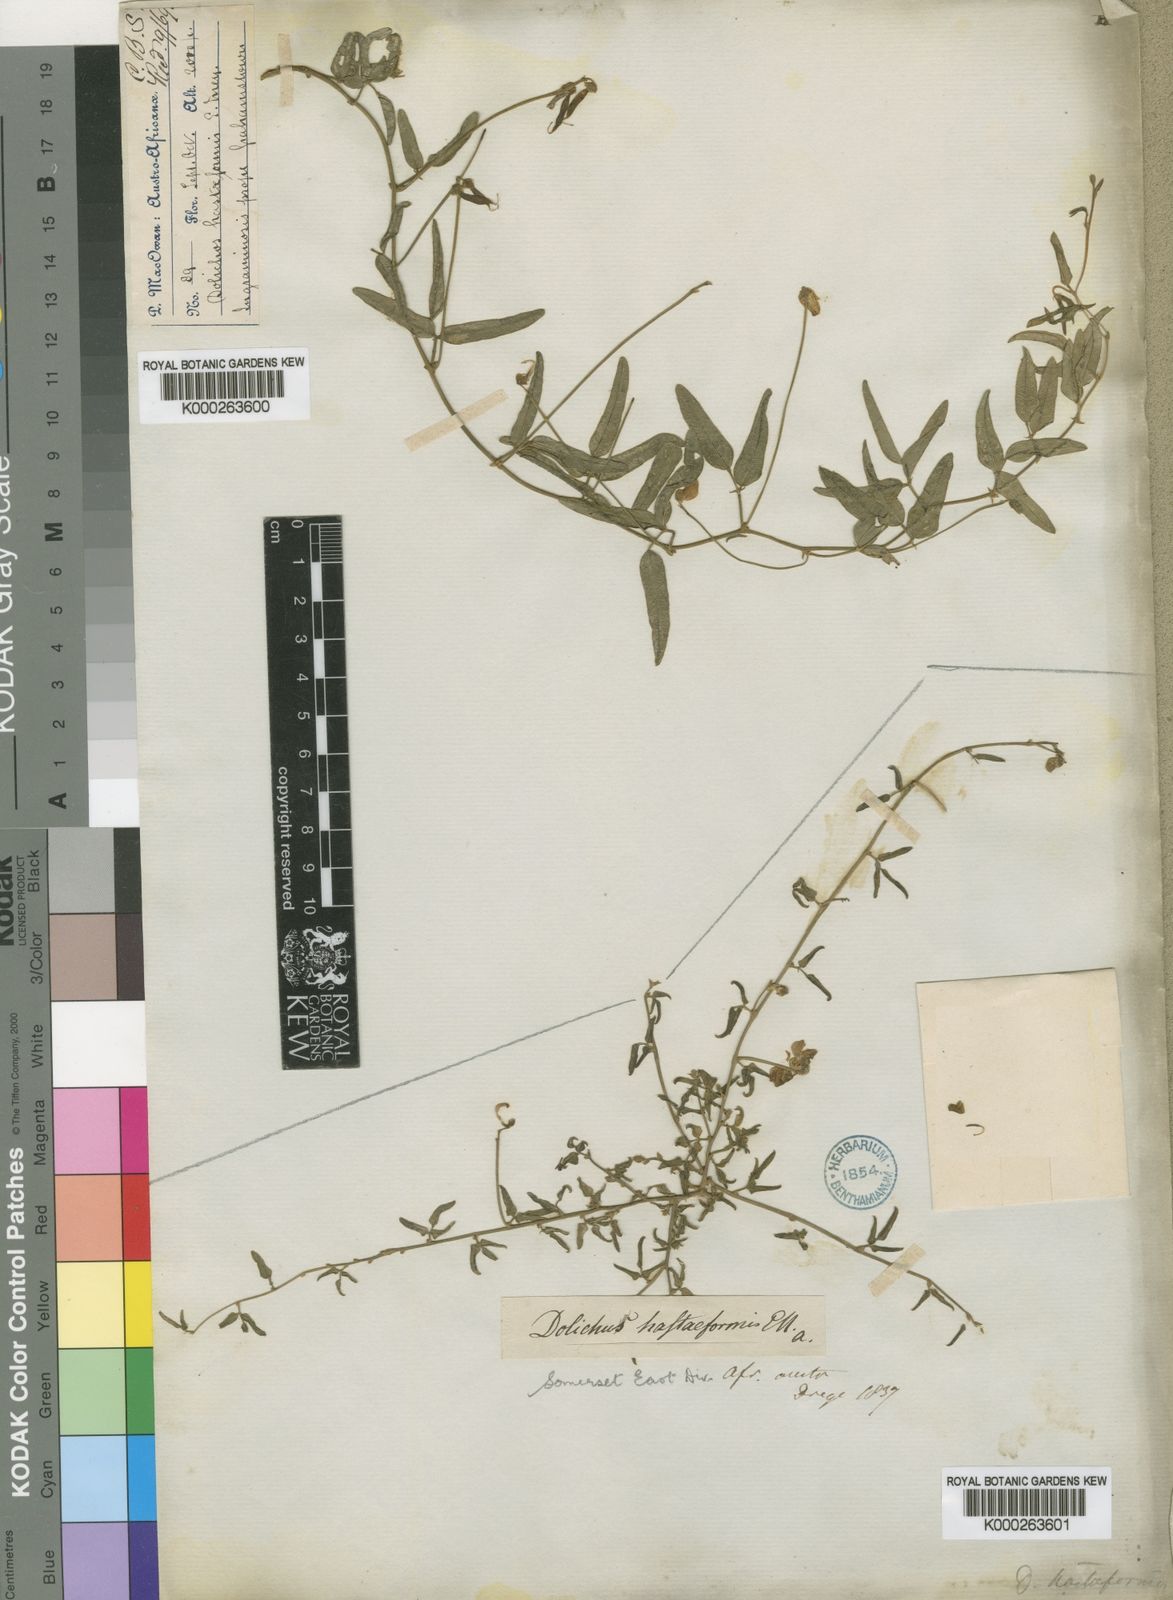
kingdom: Plantae
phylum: Tracheophyta
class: Magnoliopsida
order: Fabales
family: Fabaceae
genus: Dolichos
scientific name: Dolichos
